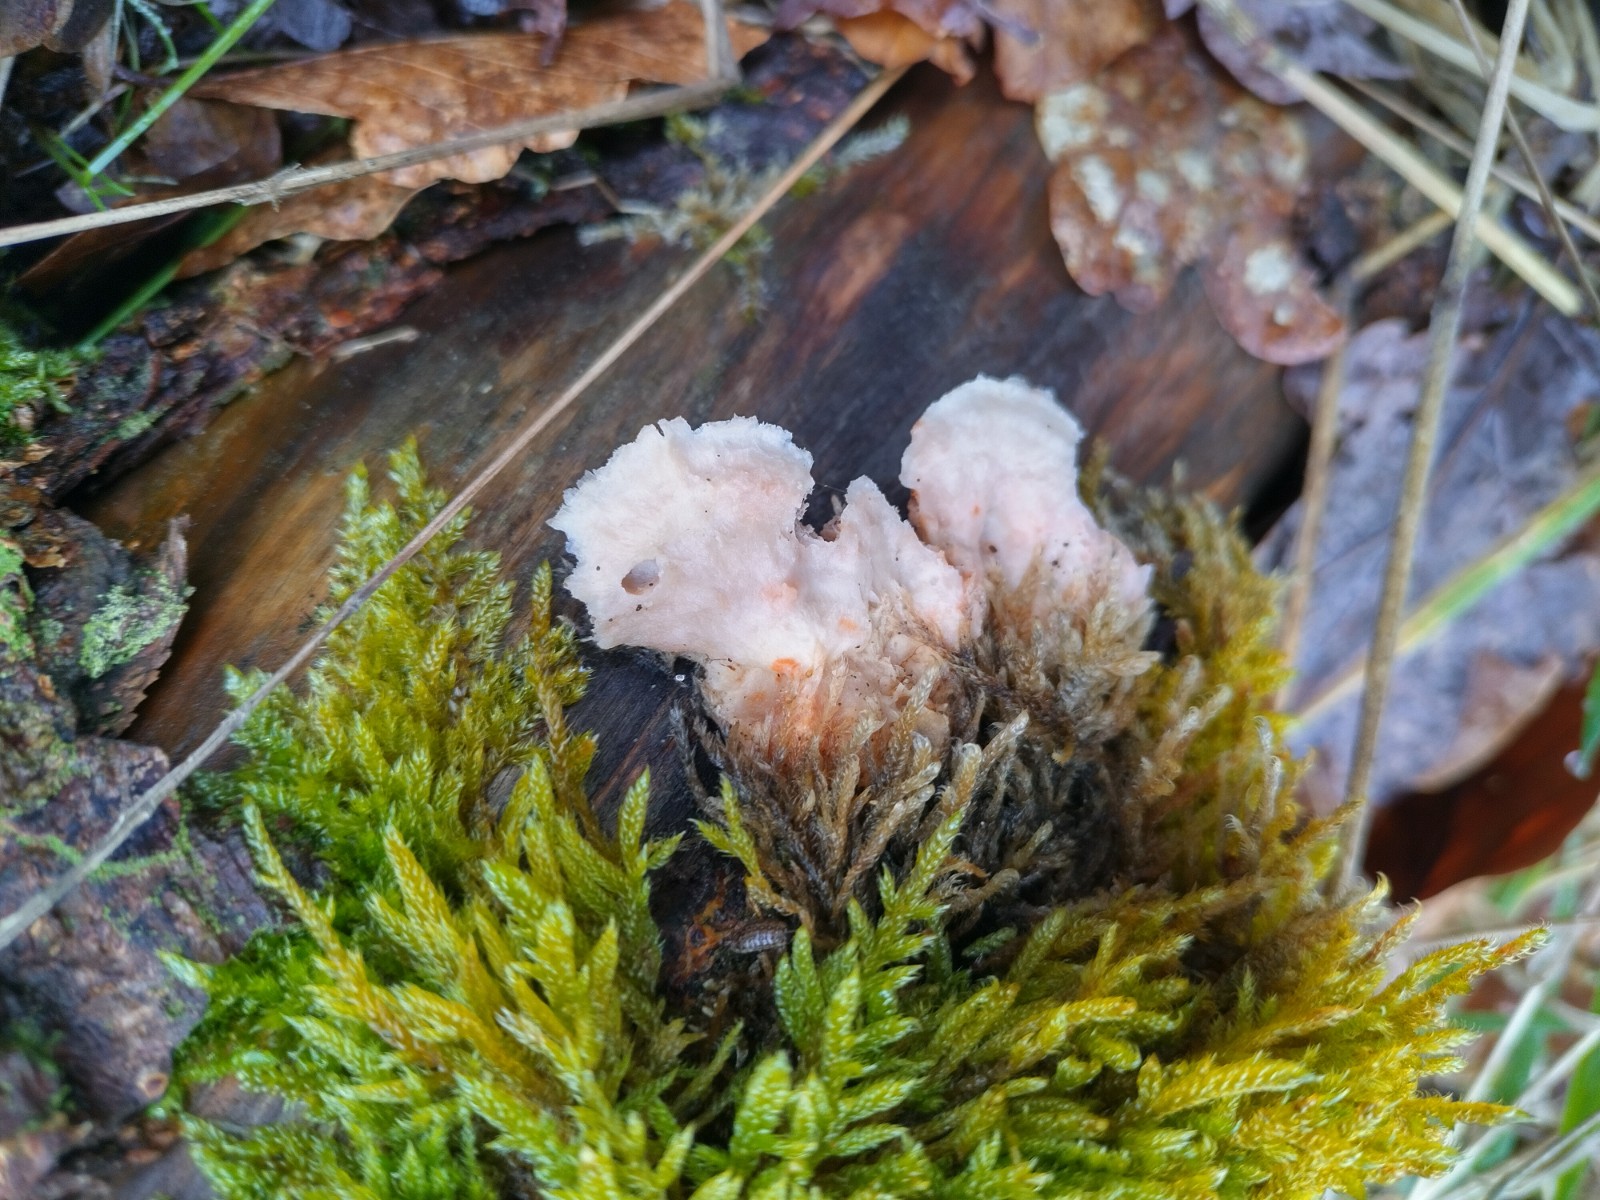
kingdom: Fungi
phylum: Basidiomycota
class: Agaricomycetes
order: Russulales
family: Stereaceae
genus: Stereum
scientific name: Stereum rugosum
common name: rynket lædersvamp
